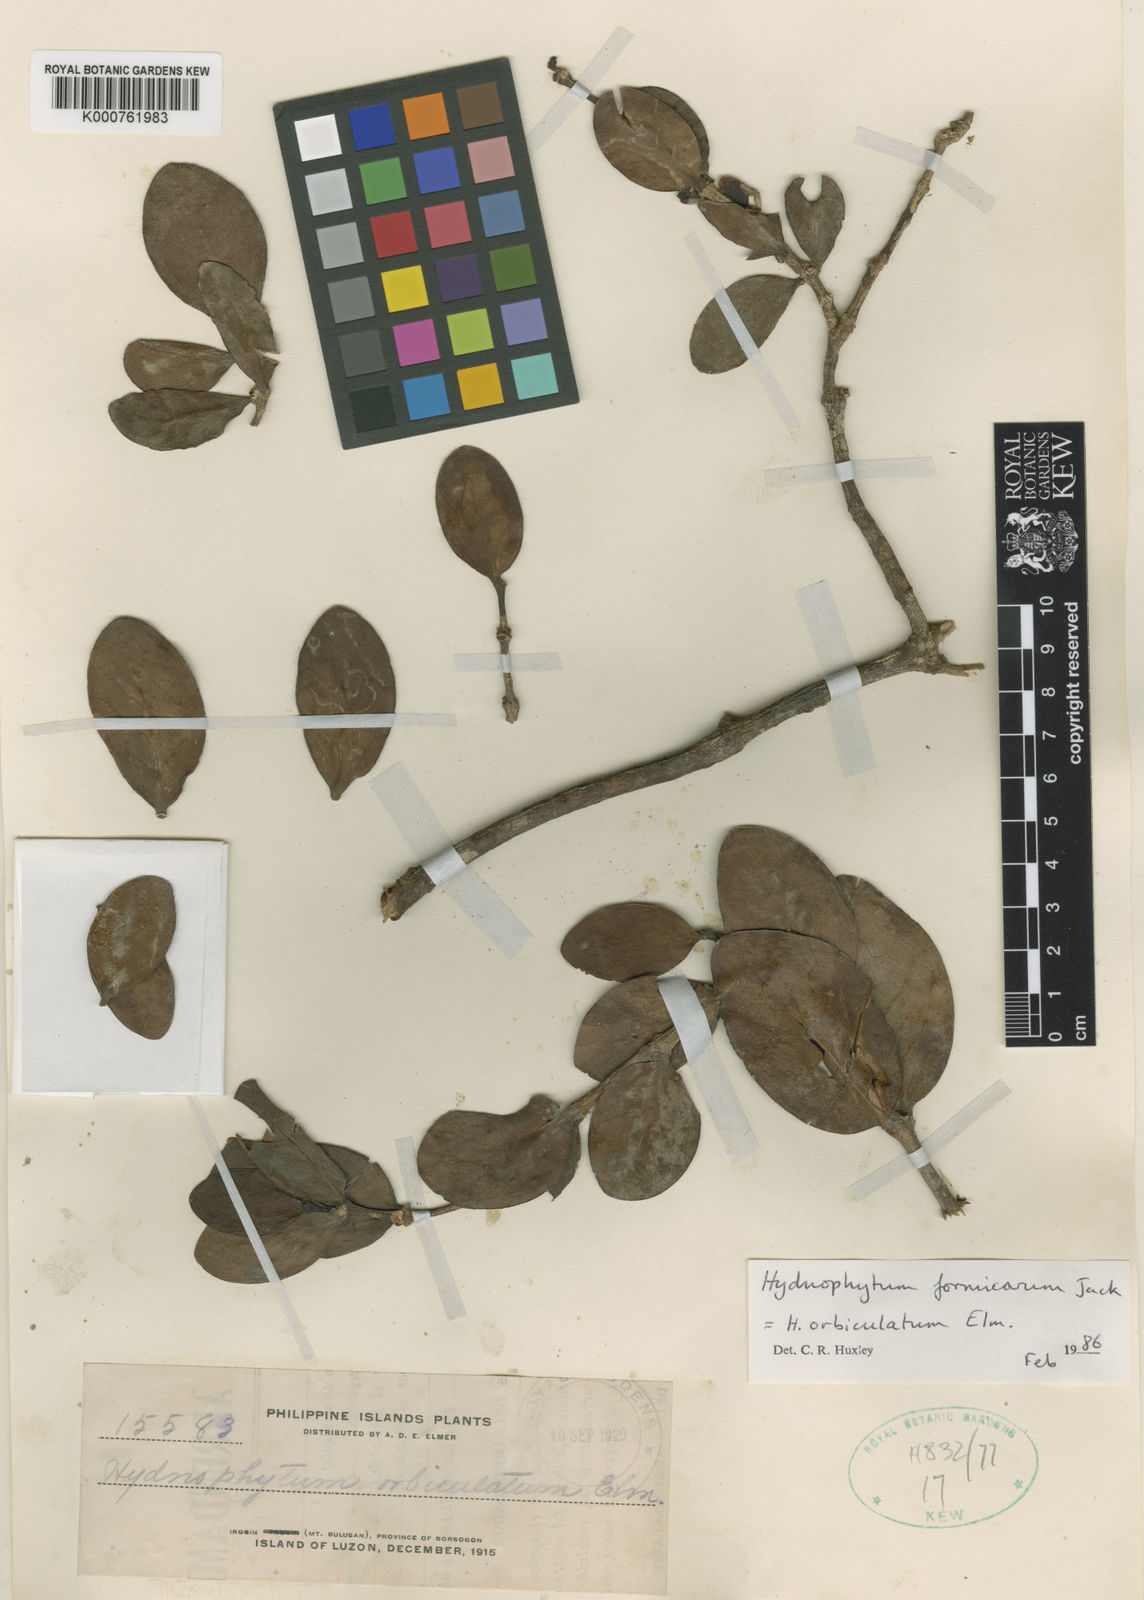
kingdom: Plantae
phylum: Tracheophyta
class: Magnoliopsida
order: Gentianales
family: Rubiaceae
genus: Hydnophytum
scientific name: Hydnophytum formicarum
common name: Ant plant
